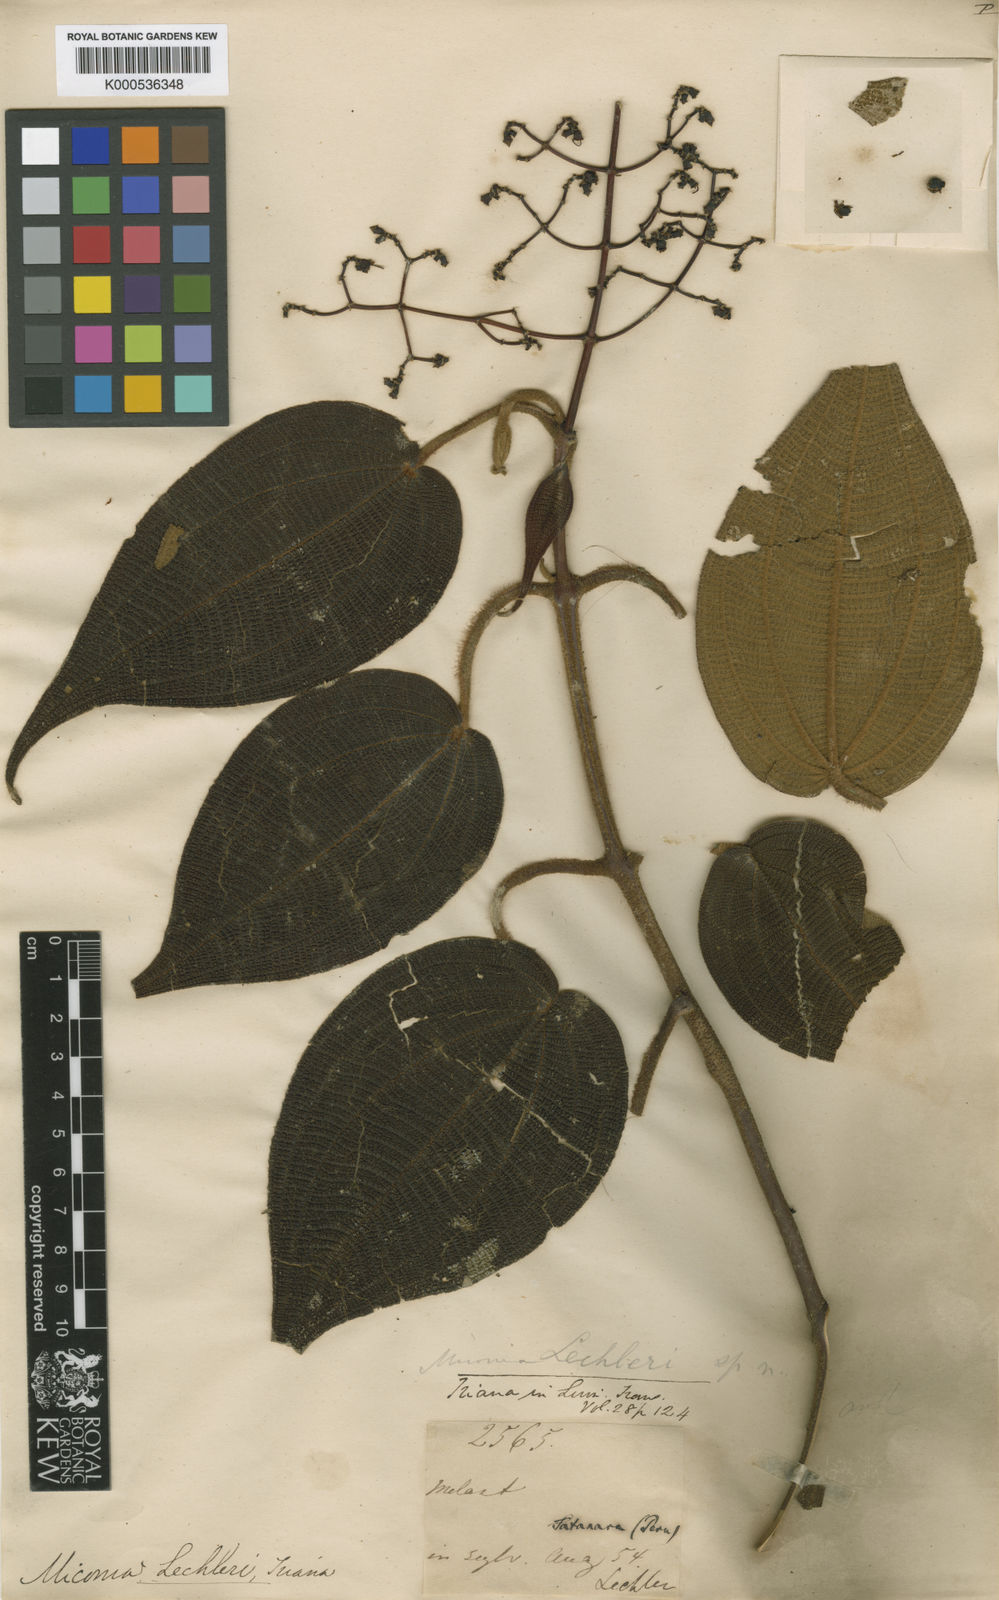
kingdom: Plantae
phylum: Tracheophyta
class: Magnoliopsida
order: Myrtales
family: Melastomataceae
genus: Miconia
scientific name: Miconia lechleri
